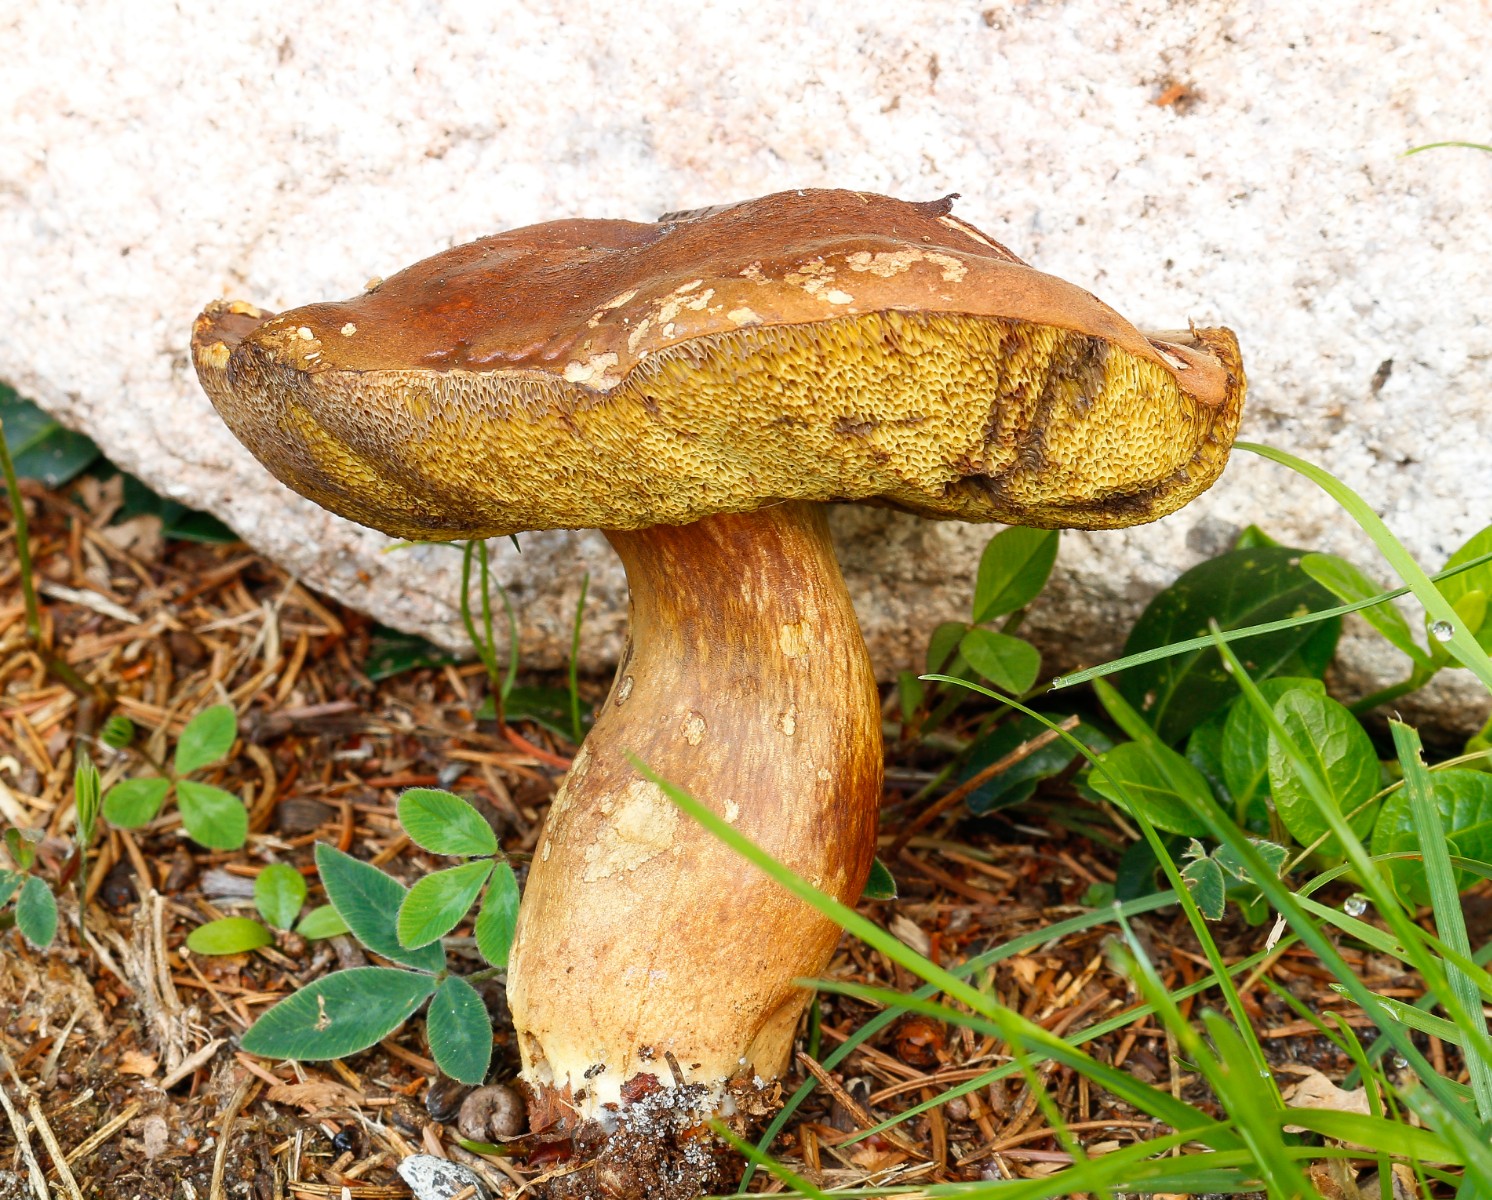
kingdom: Fungi
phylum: Basidiomycota
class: Agaricomycetes
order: Boletales
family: Boletaceae
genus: Imleria
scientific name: Imleria badia
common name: brunstokket rørhat
